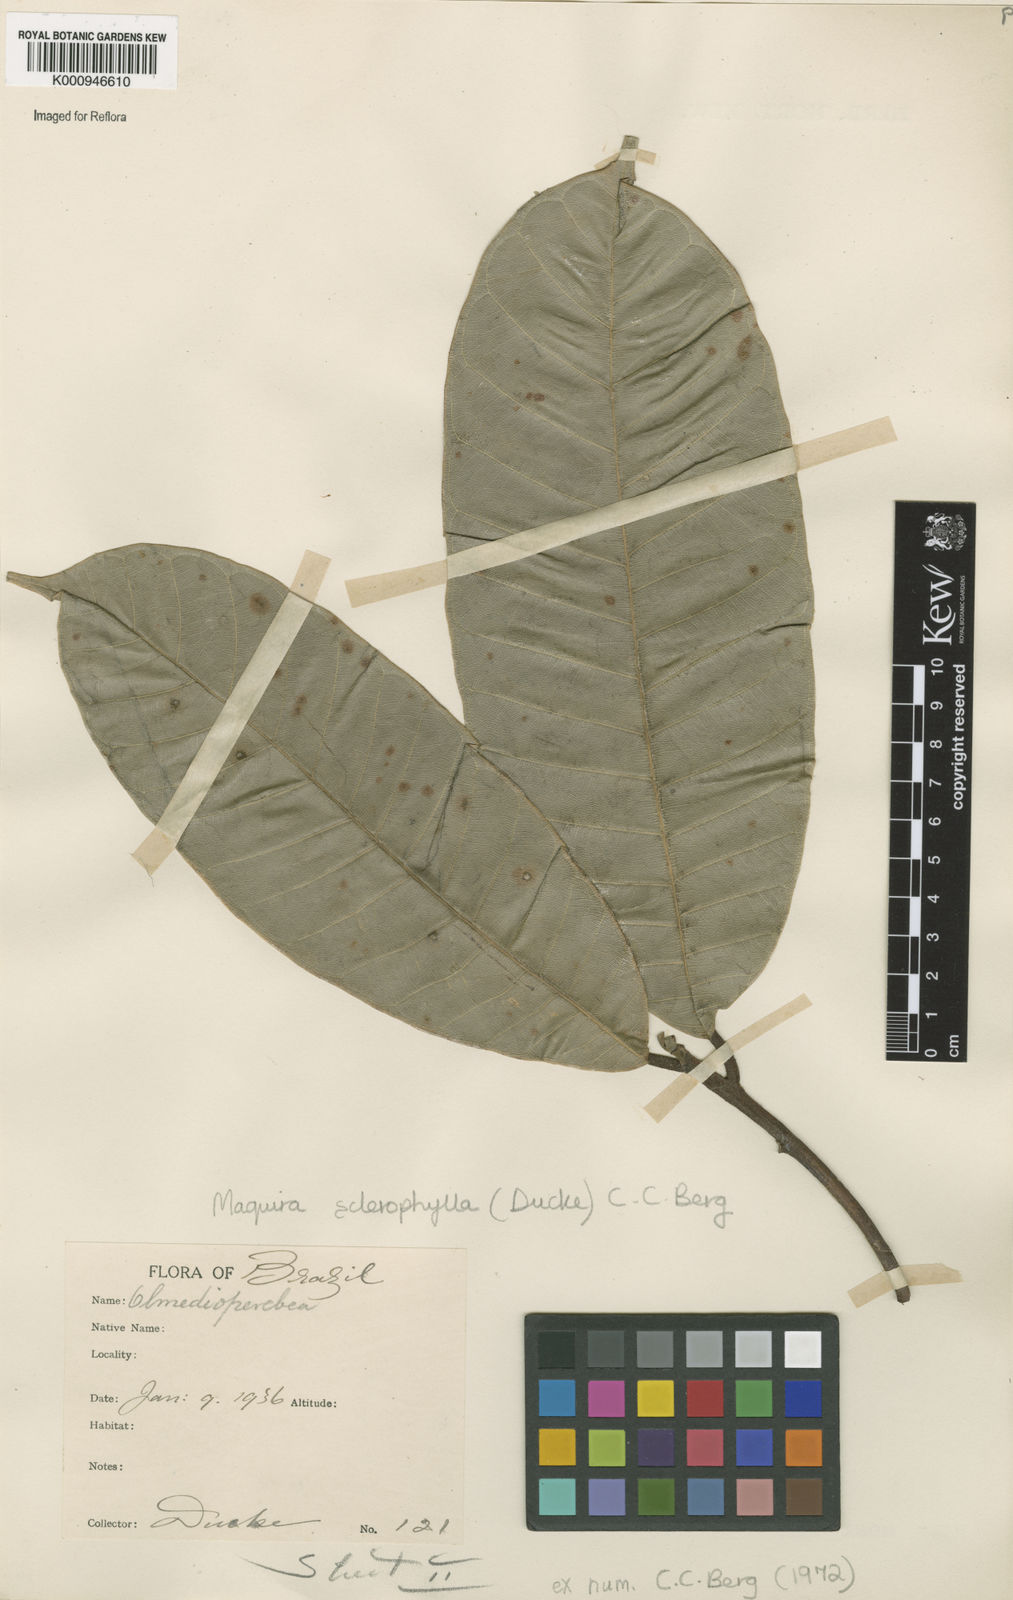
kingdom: Plantae
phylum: Tracheophyta
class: Magnoliopsida
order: Rosales
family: Moraceae
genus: Maquira
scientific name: Maquira sclerophylla
